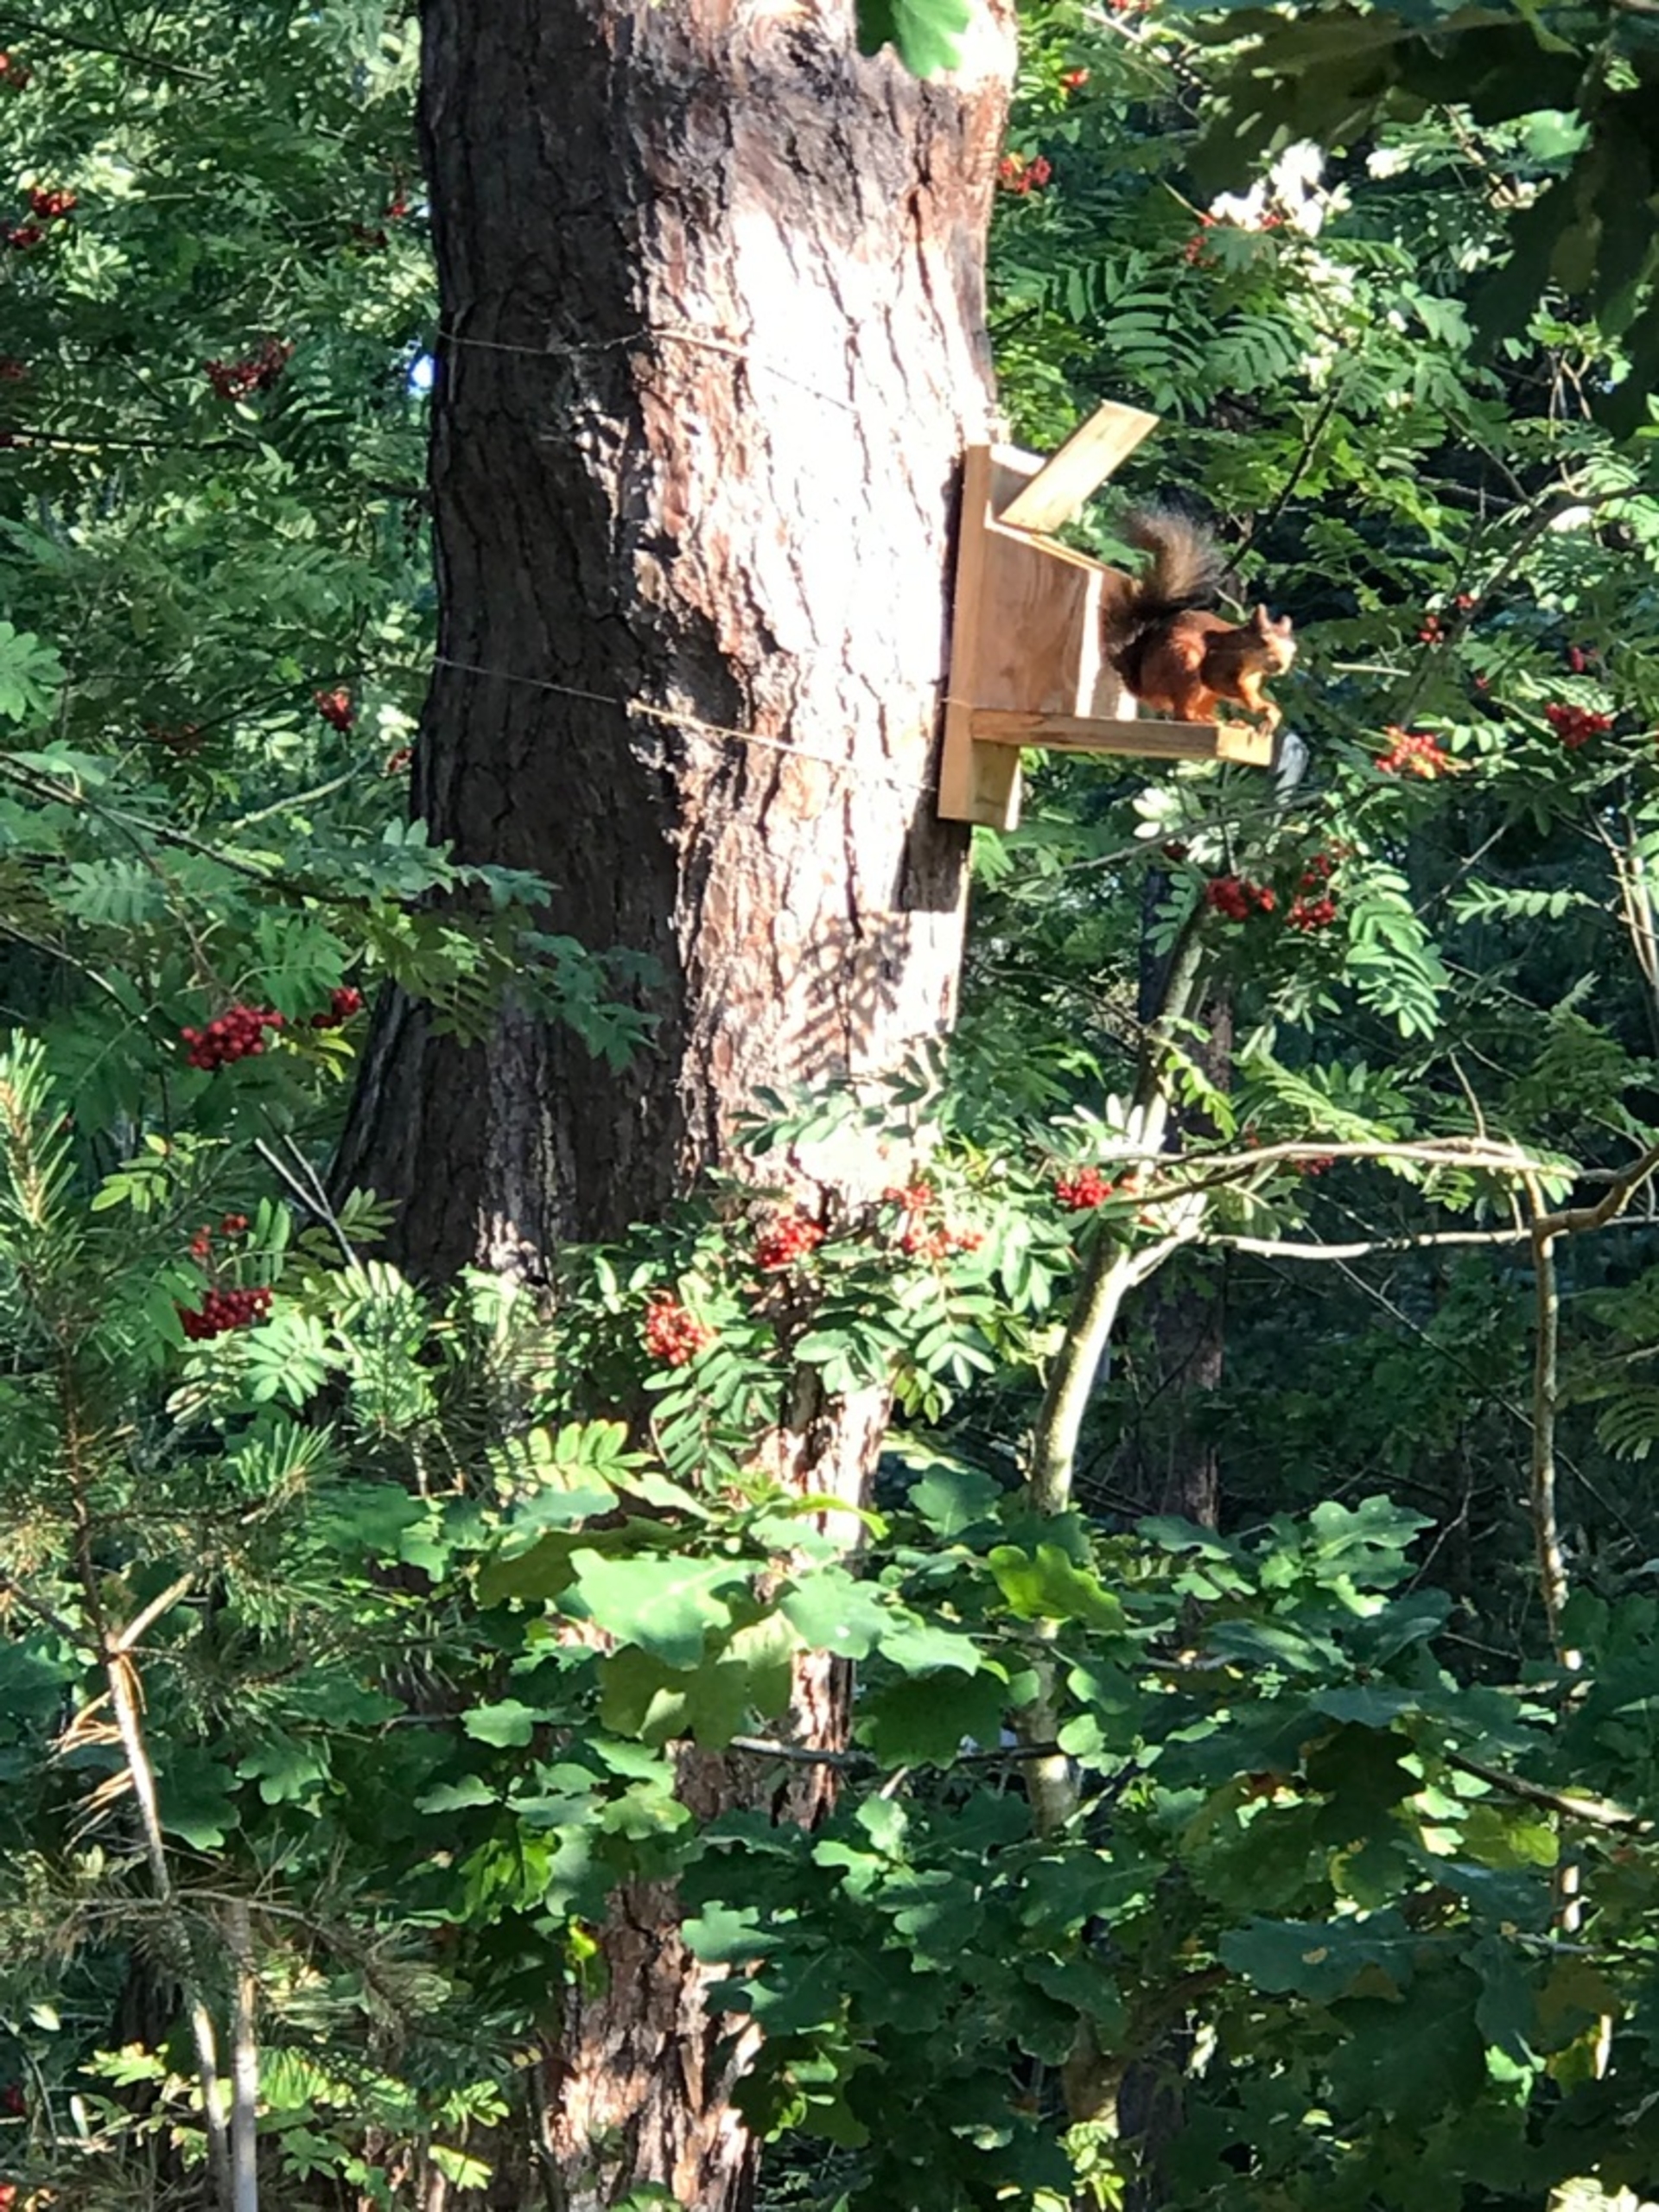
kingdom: Animalia
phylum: Chordata
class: Mammalia
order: Rodentia
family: Sciuridae
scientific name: Sciuridae
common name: Egern
